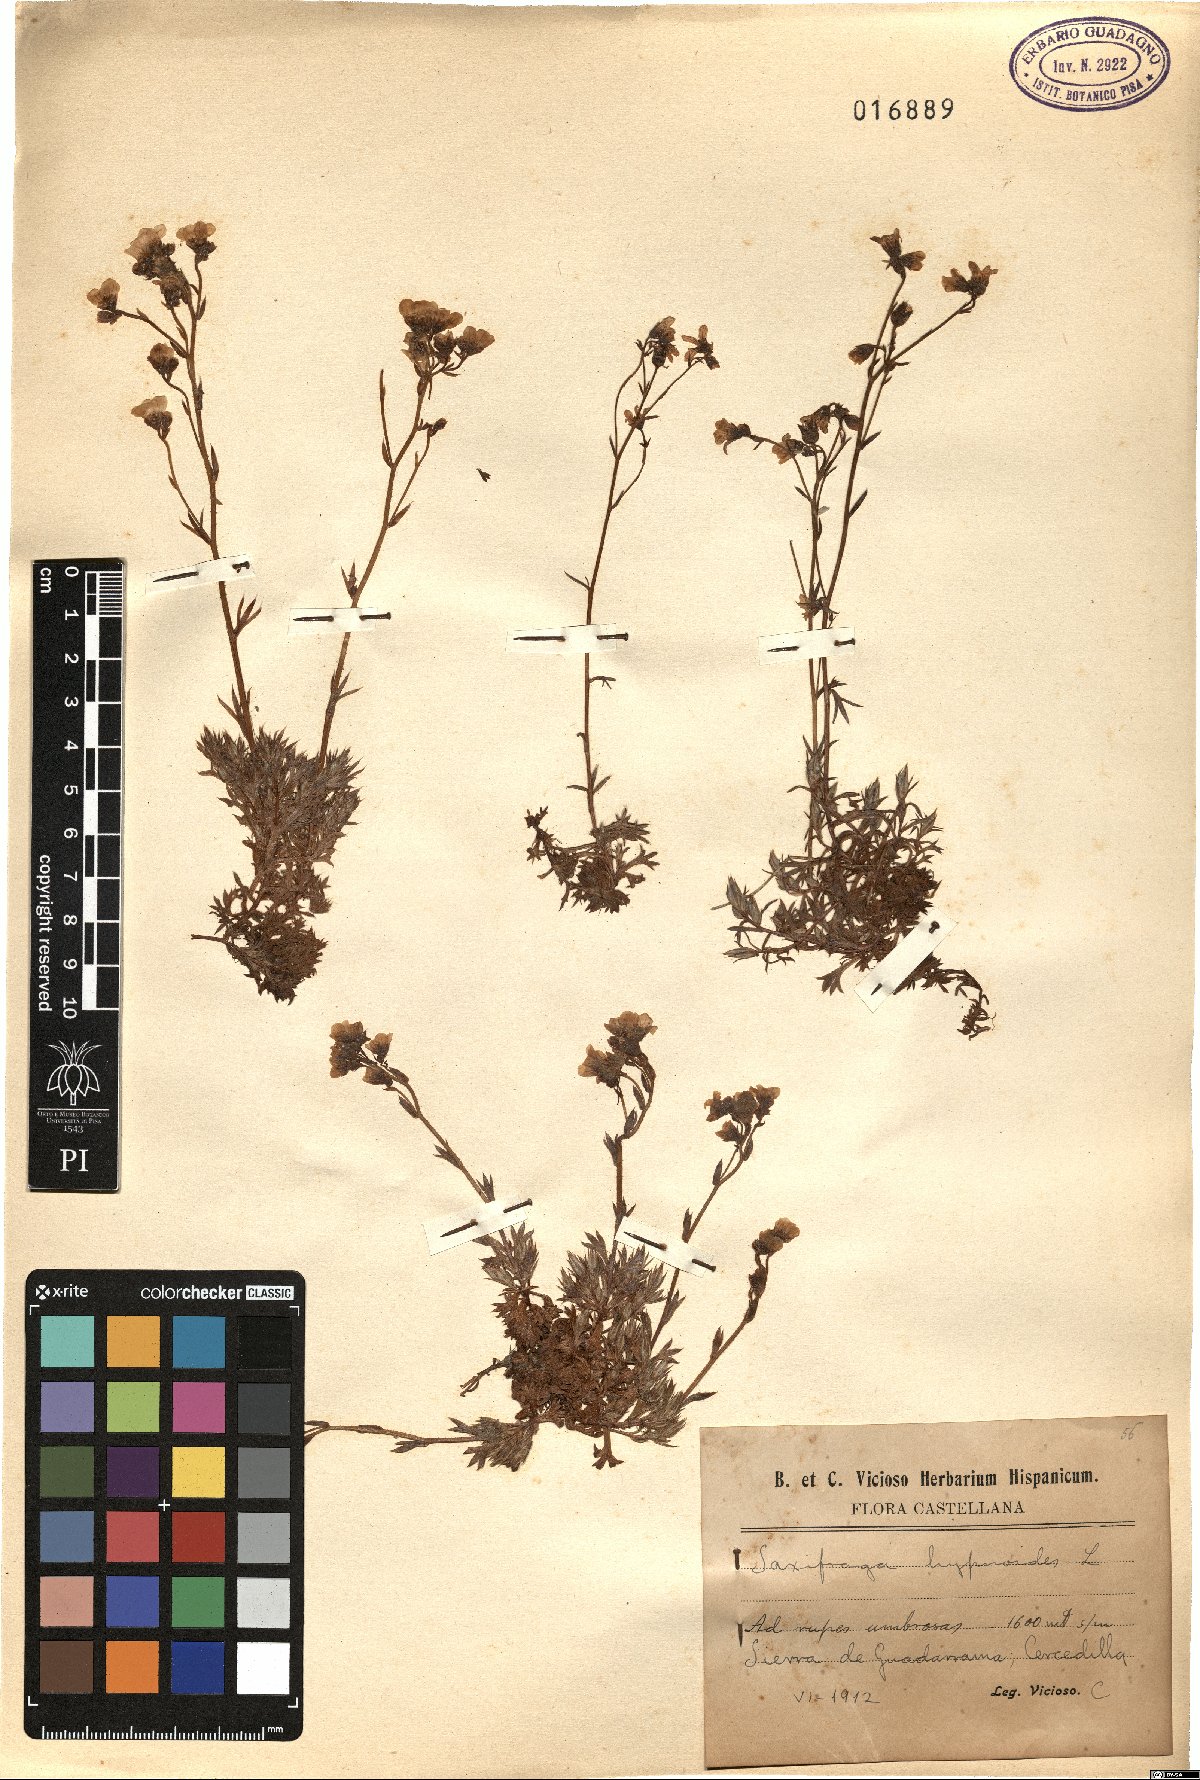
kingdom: Plantae
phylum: Tracheophyta
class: Magnoliopsida
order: Saxifragales
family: Saxifragaceae
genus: Saxifraga
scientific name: Saxifraga hypnoides
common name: Mossy saxifrage
